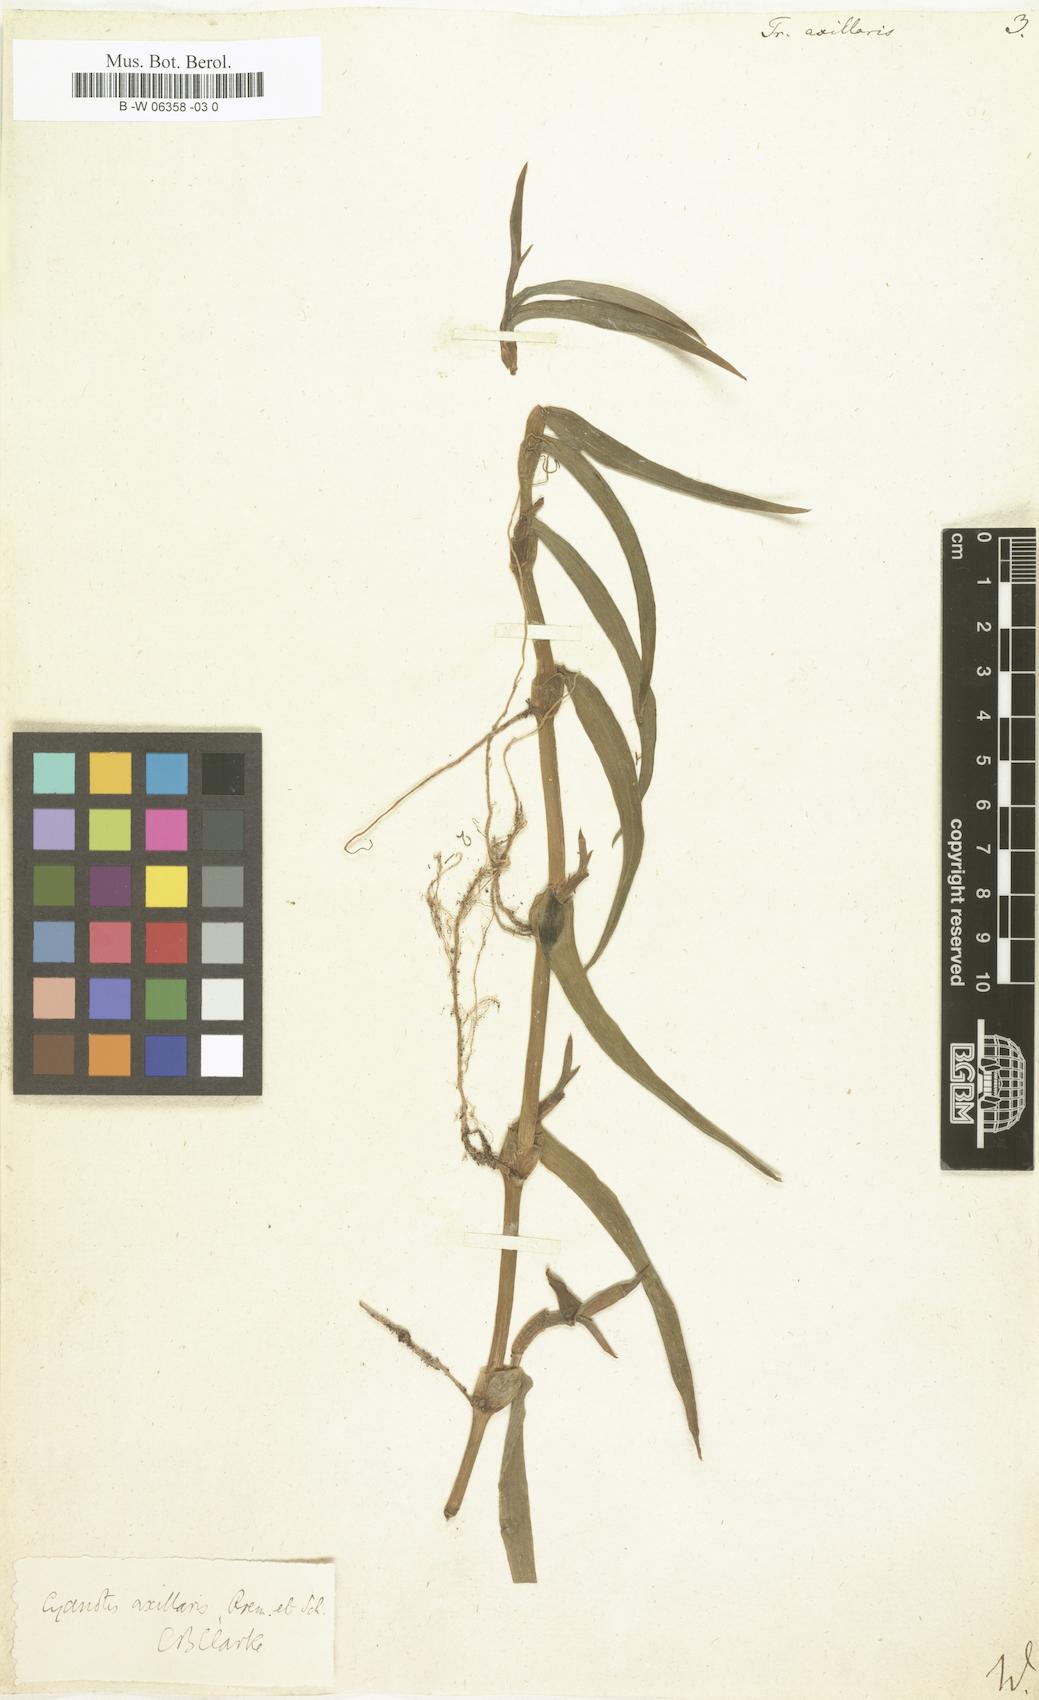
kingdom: Plantae
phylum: Tracheophyta
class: Liliopsida
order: Commelinales
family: Commelinaceae
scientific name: Commelinaceae
